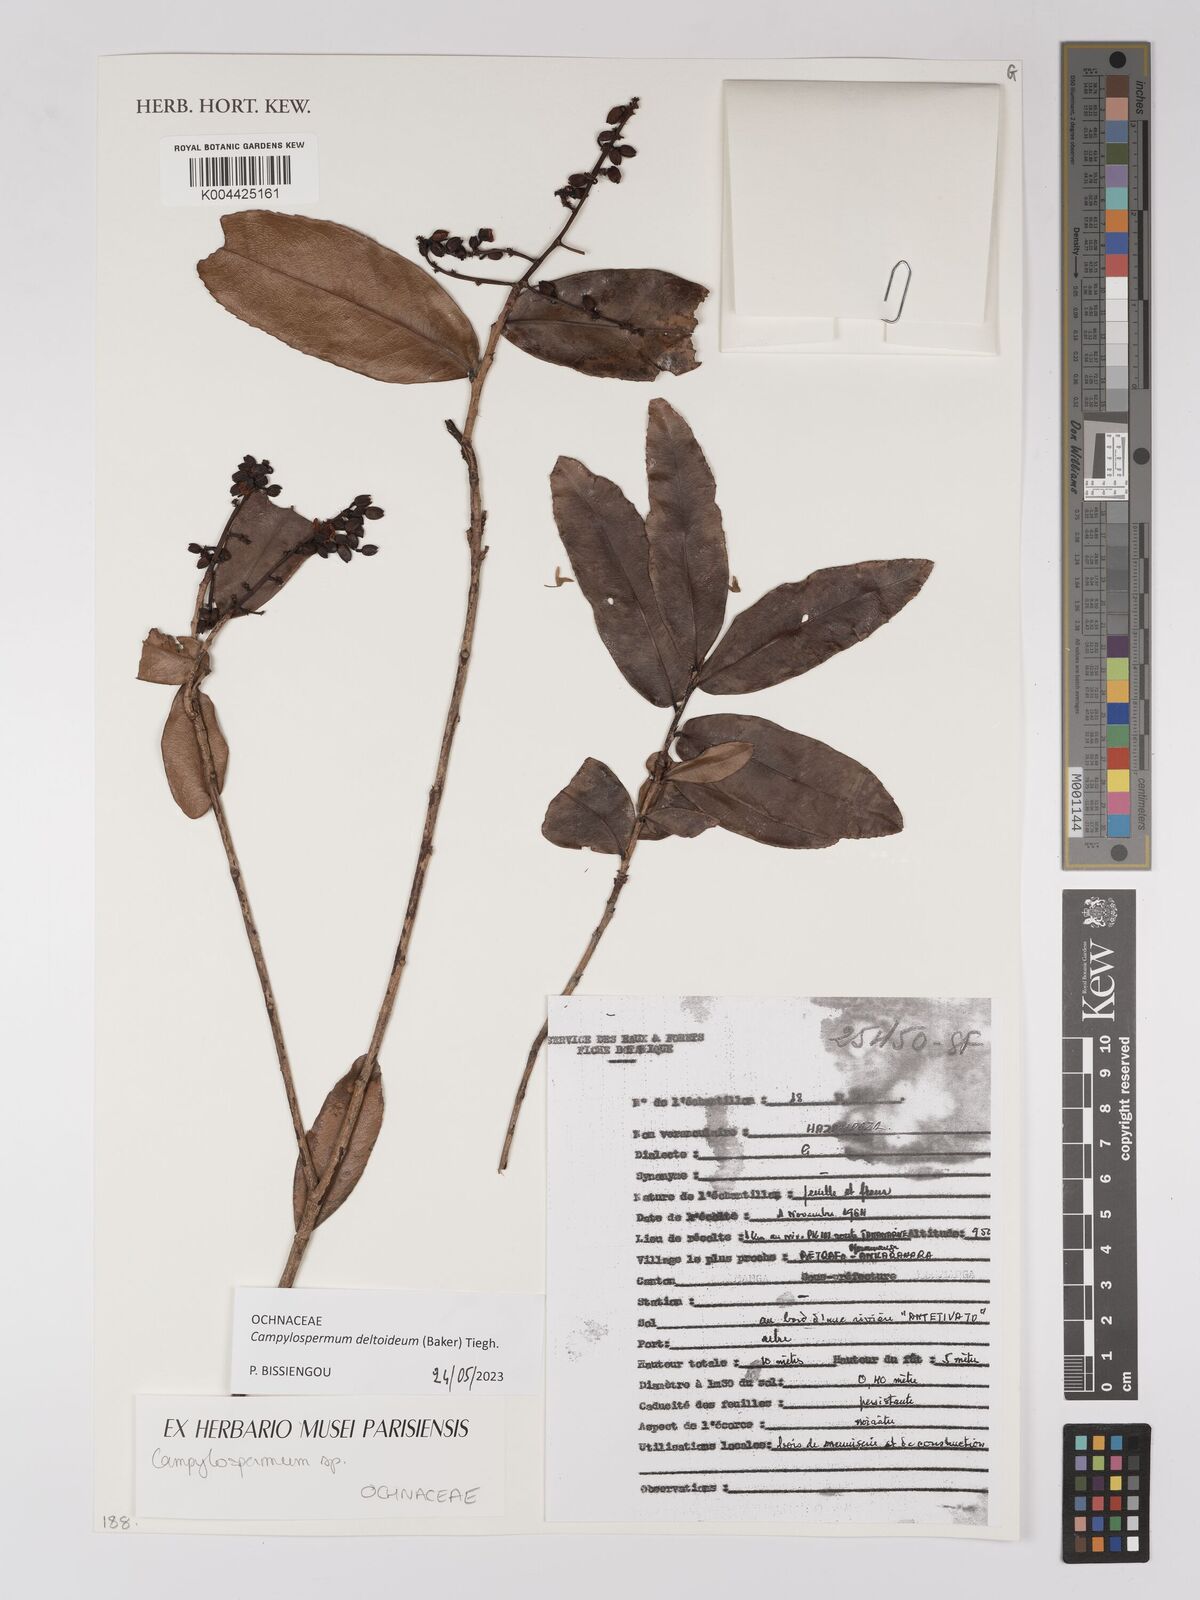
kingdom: Plantae
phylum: Tracheophyta
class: Magnoliopsida
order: Malpighiales
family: Ochnaceae
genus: Campylospermum
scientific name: Campylospermum
